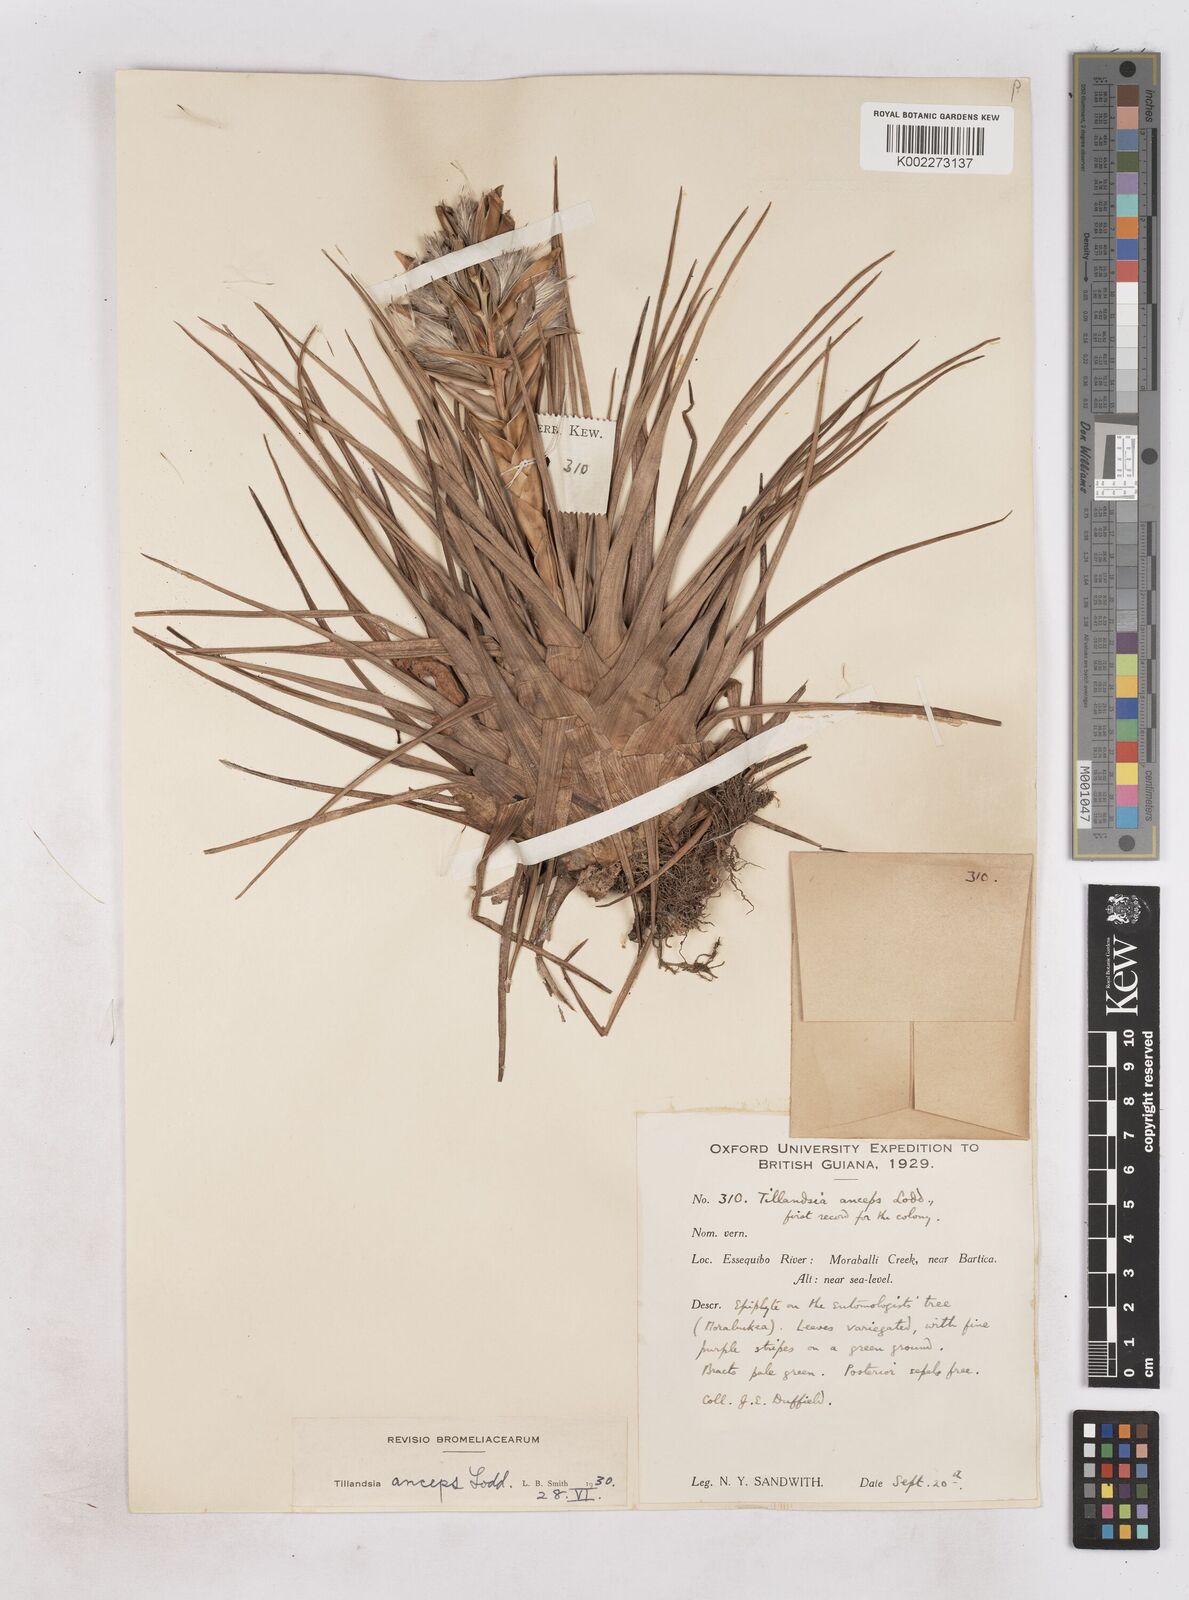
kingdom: Plantae
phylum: Tracheophyta
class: Liliopsida
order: Poales
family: Bromeliaceae
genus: Wallisia
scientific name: Wallisia anceps
